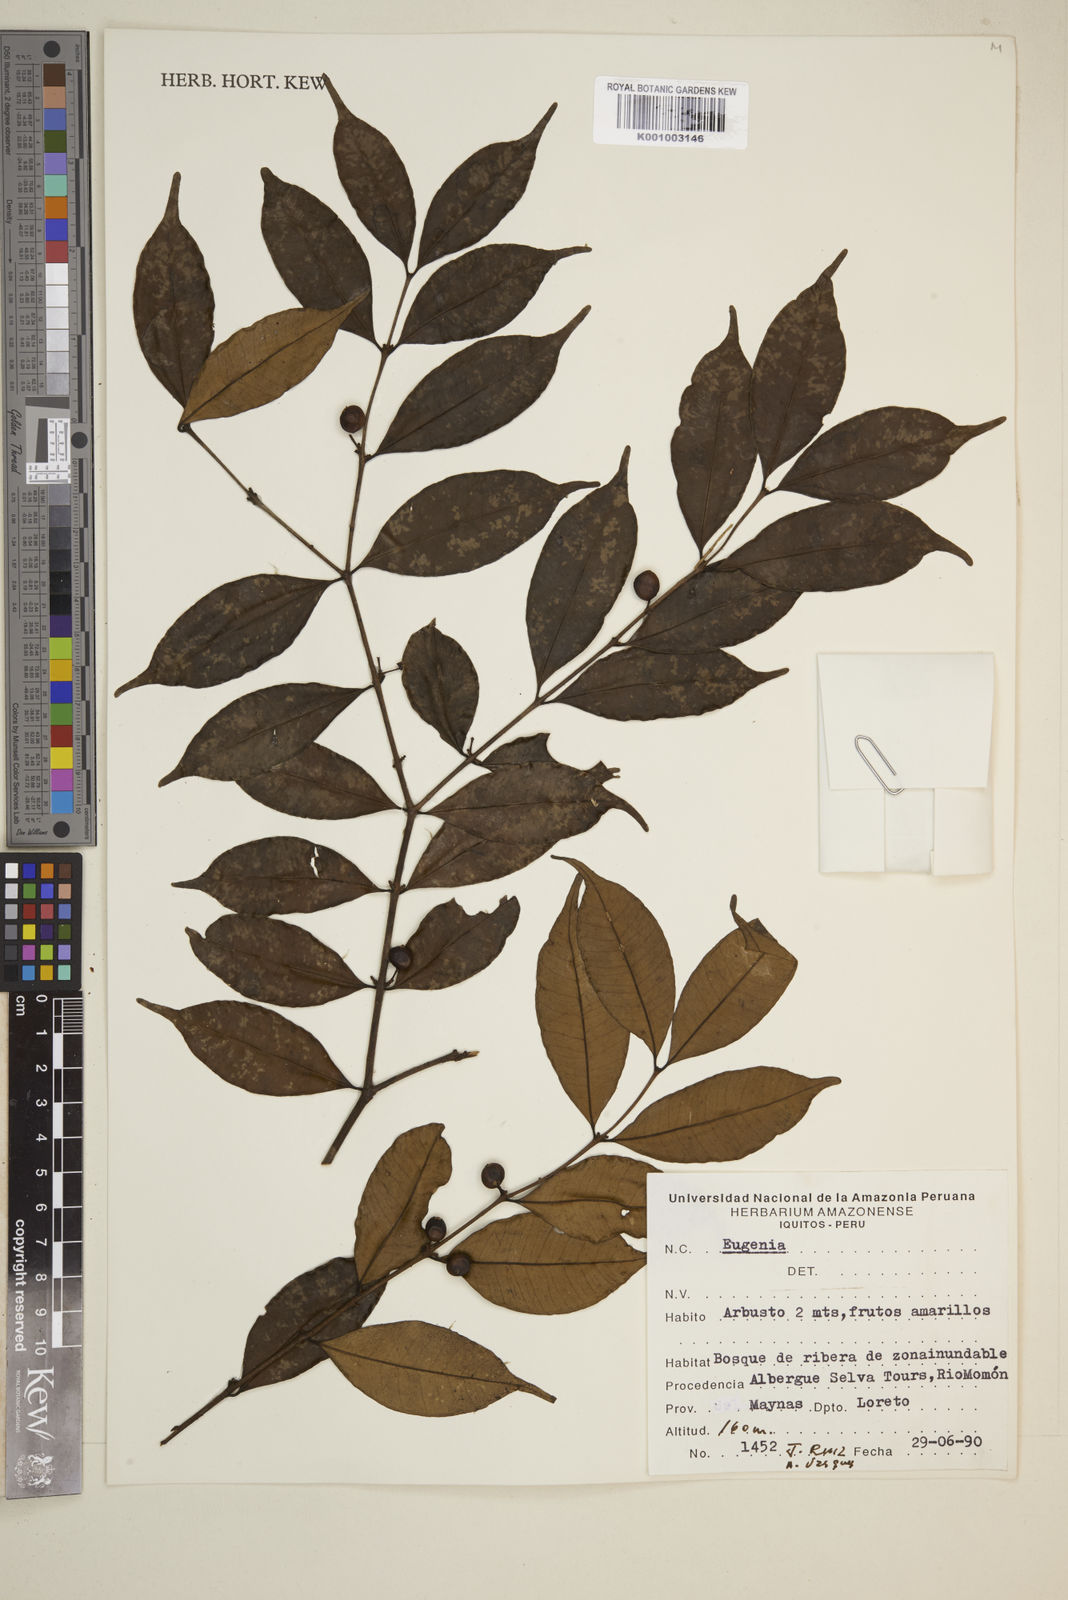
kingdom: Plantae
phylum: Tracheophyta
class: Magnoliopsida
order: Myrtales
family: Myrtaceae
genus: Eugenia
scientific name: Eugenia
